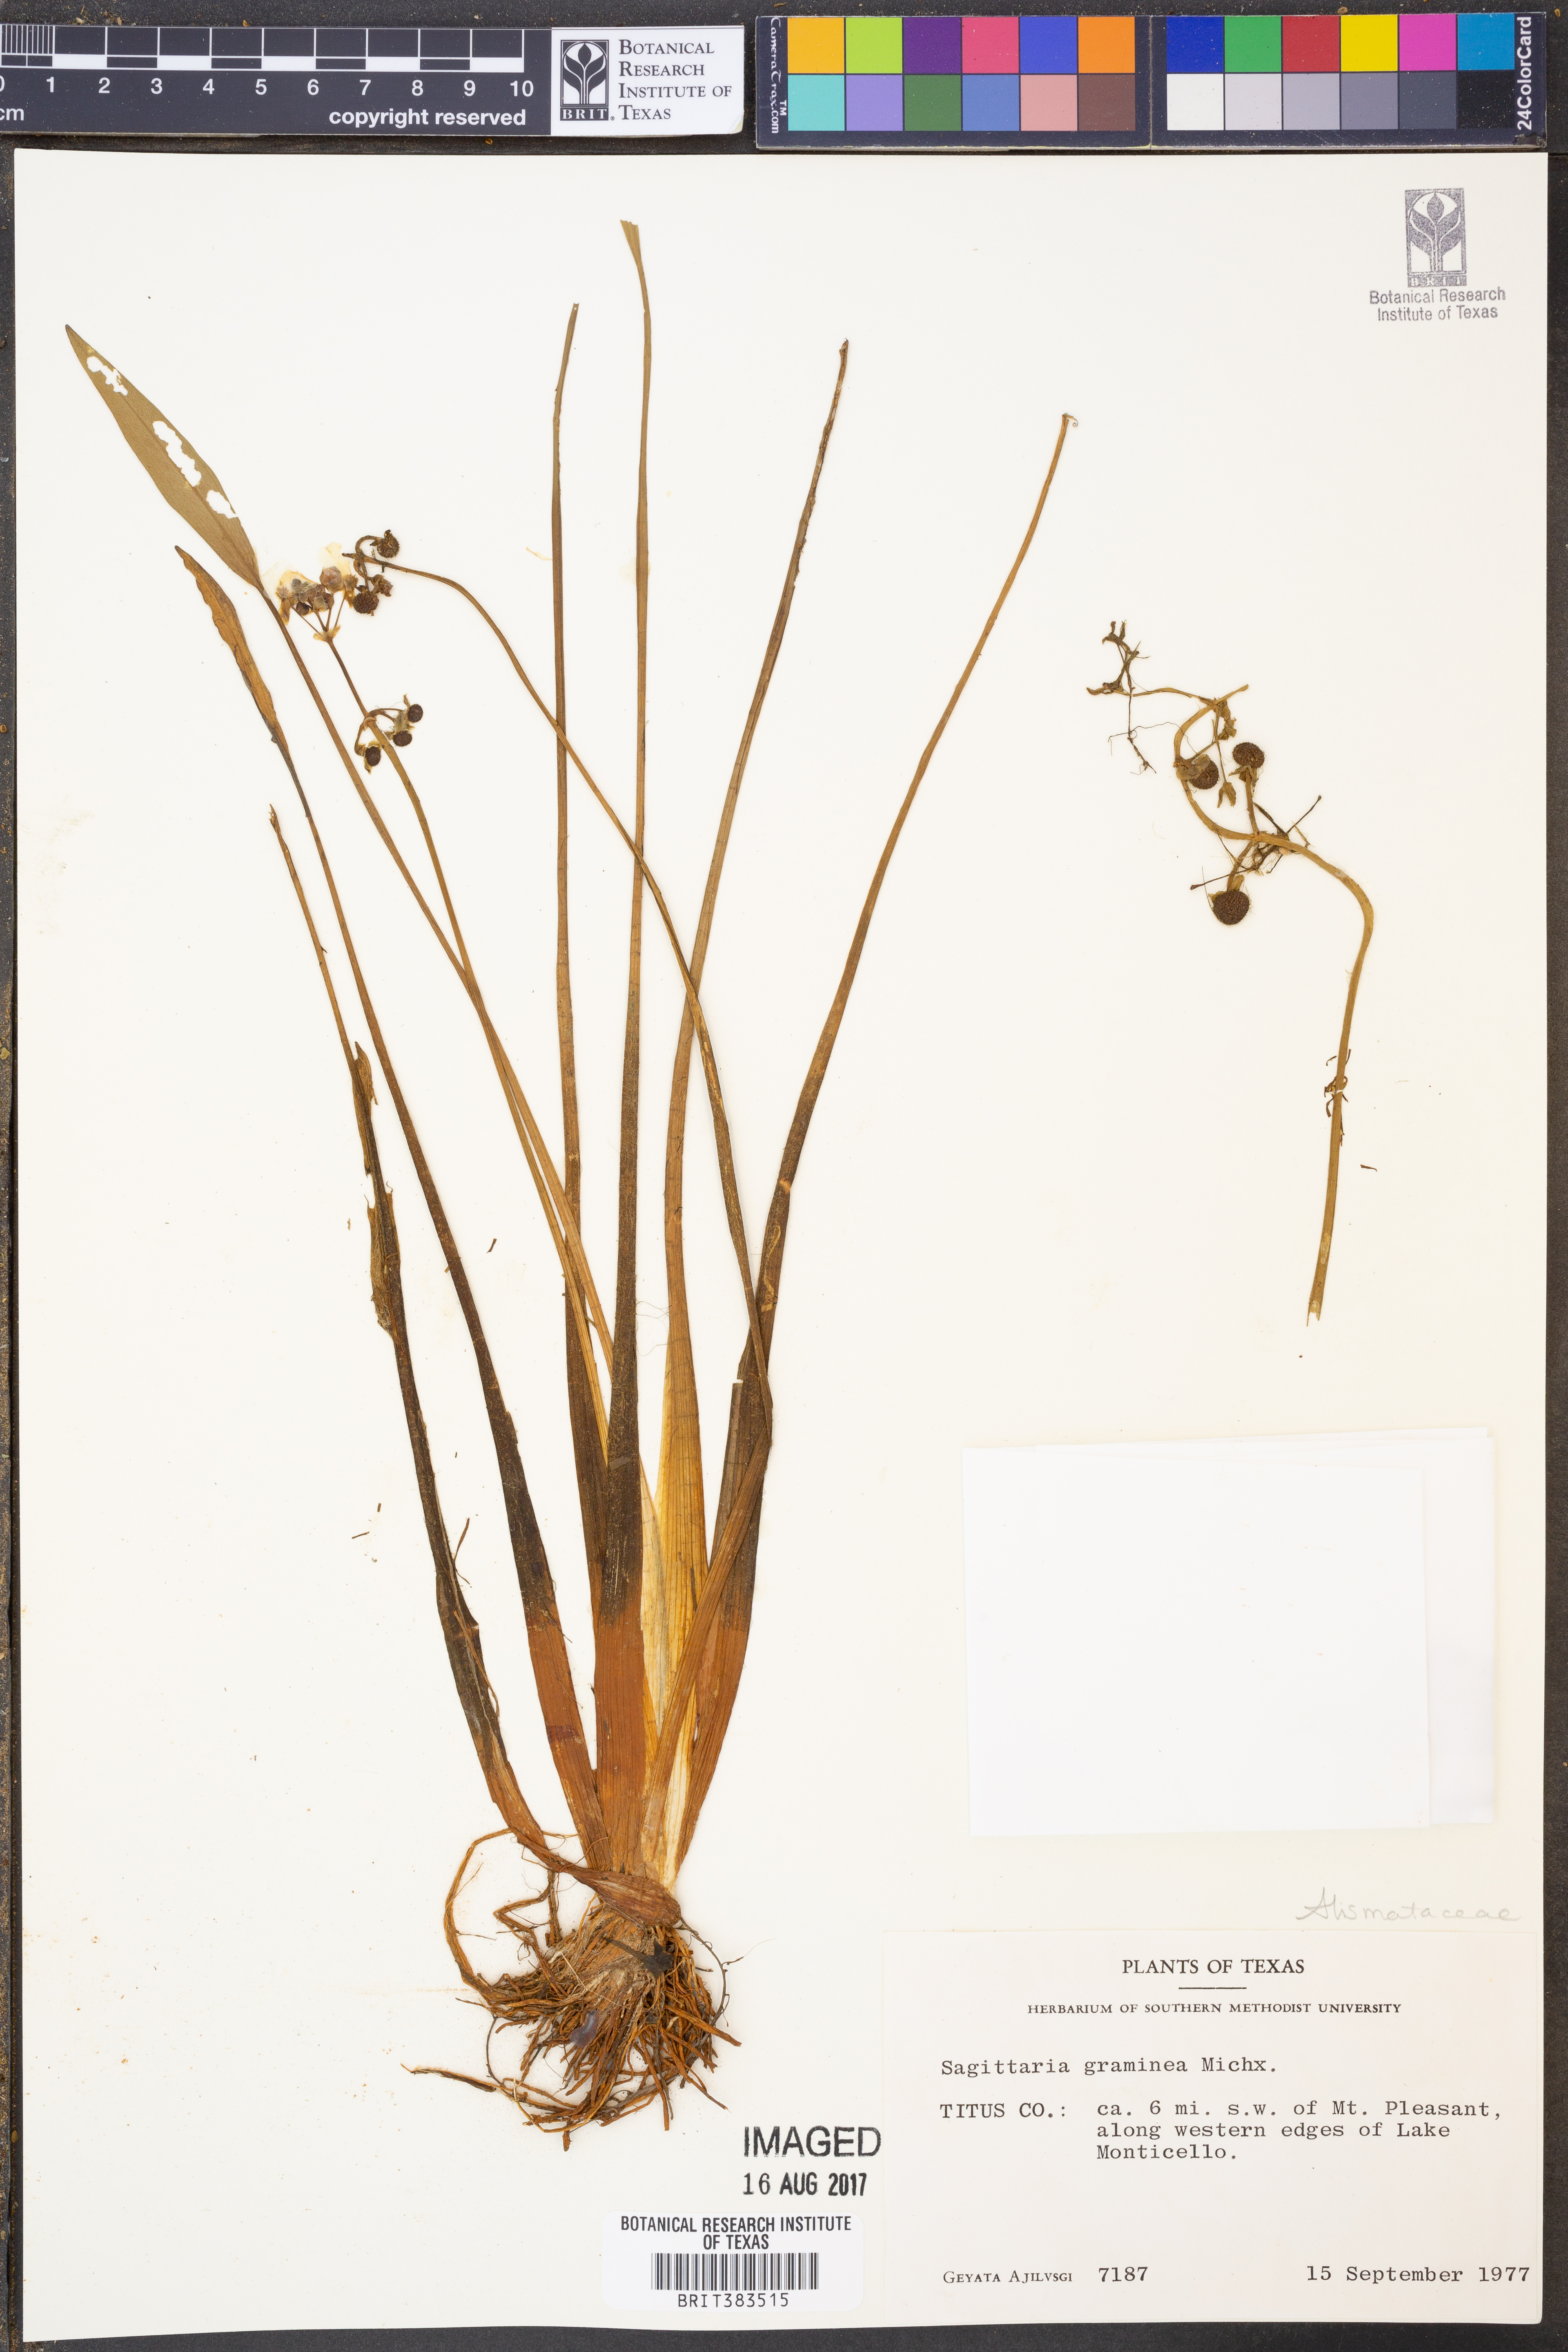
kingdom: Plantae
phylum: Tracheophyta
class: Liliopsida
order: Alismatales
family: Alismataceae
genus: Sagittaria
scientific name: Sagittaria graminea
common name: Grass-leaved arrowhead
